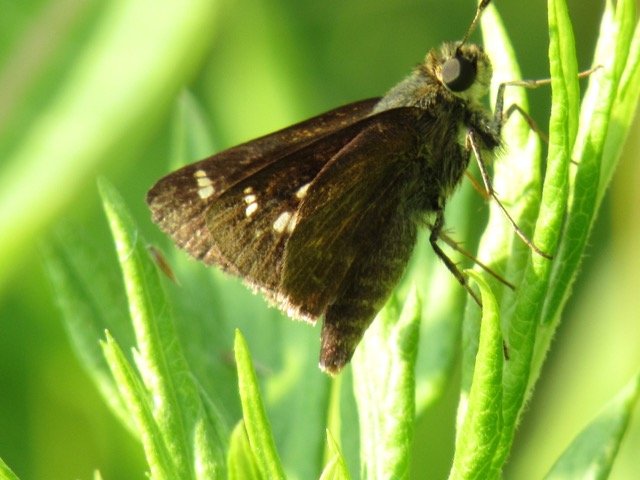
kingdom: Animalia
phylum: Arthropoda
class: Insecta
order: Lepidoptera
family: Hesperiidae
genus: Vernia
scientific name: Vernia verna
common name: Little Glassywing
